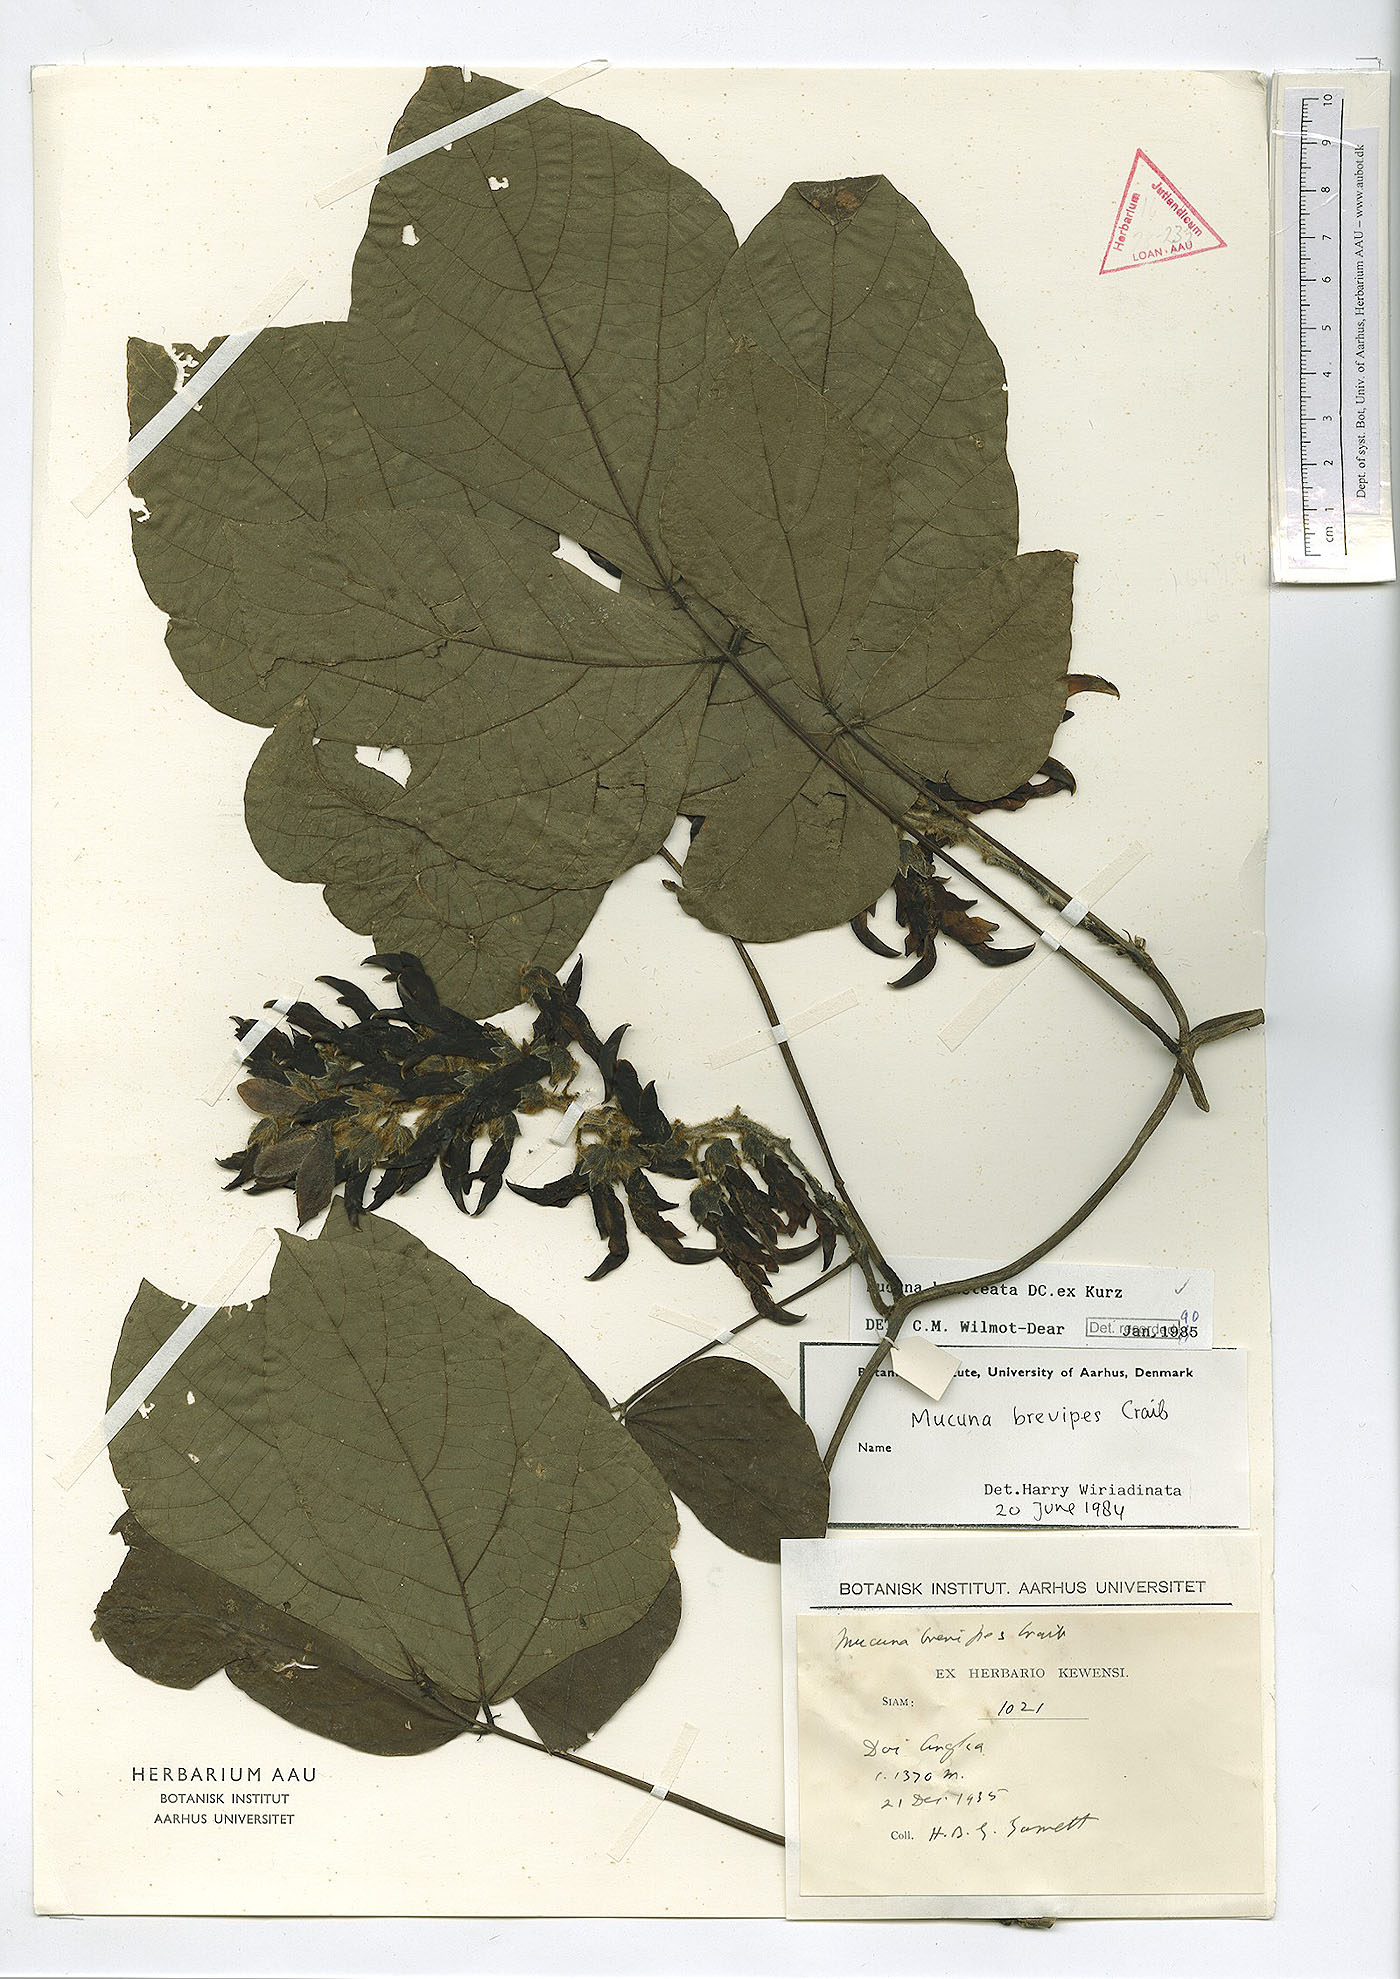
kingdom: Plantae
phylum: Tracheophyta
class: Magnoliopsida
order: Fabales
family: Fabaceae
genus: Mucuna
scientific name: Mucuna bracteata
